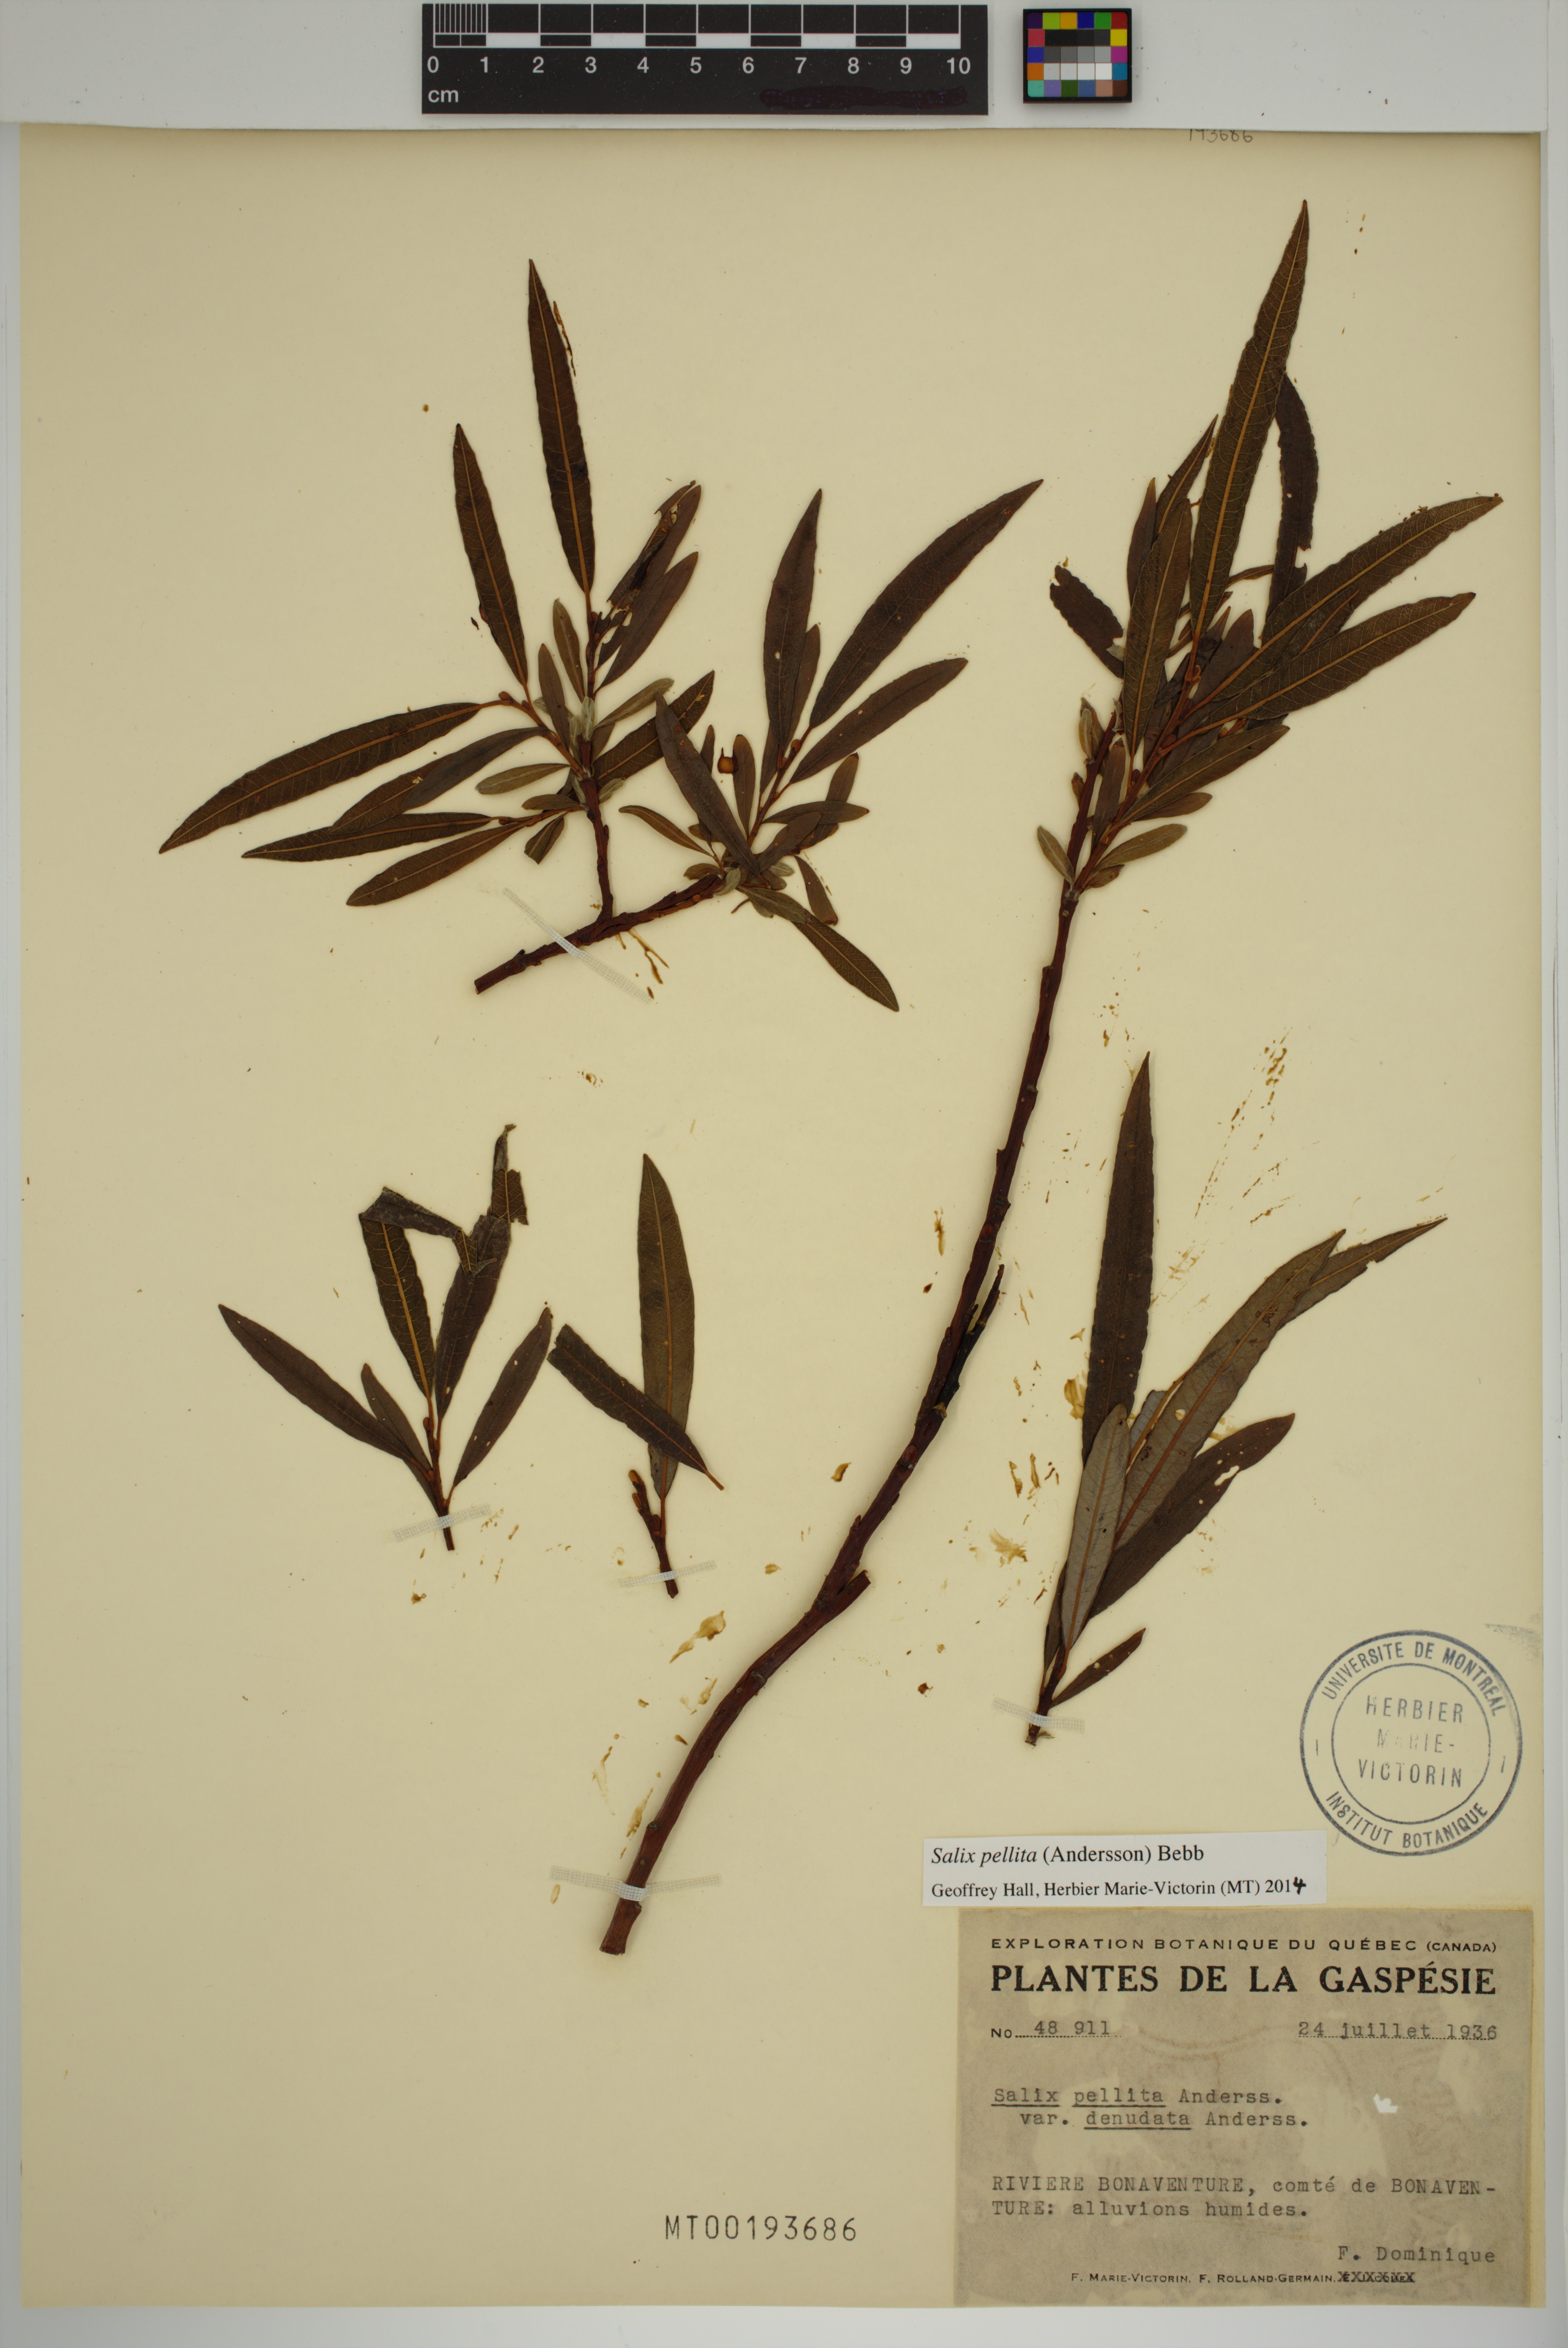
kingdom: Plantae
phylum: Tracheophyta
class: Magnoliopsida
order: Malpighiales
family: Salicaceae
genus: Salix
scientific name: Salix pellita
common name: Satiny willow
